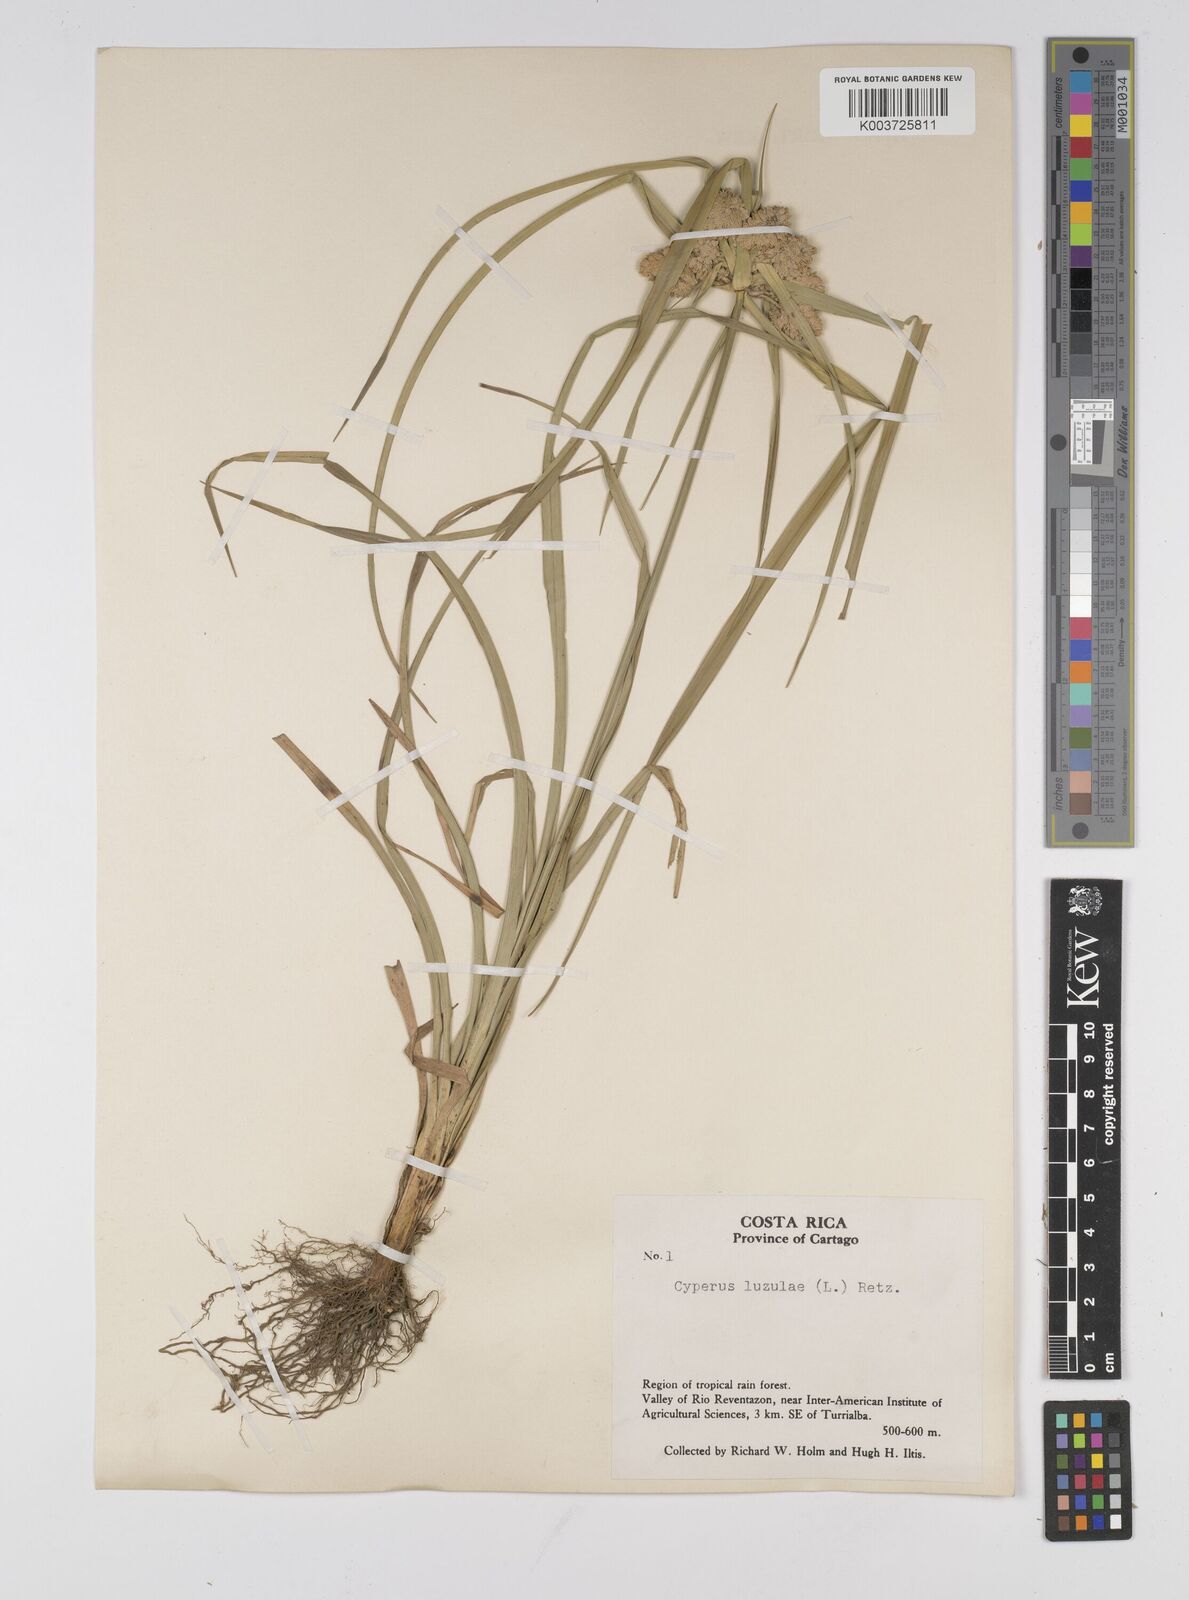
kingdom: Plantae
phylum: Tracheophyta
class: Liliopsida
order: Poales
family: Cyperaceae
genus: Cyperus
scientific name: Cyperus luzulae
